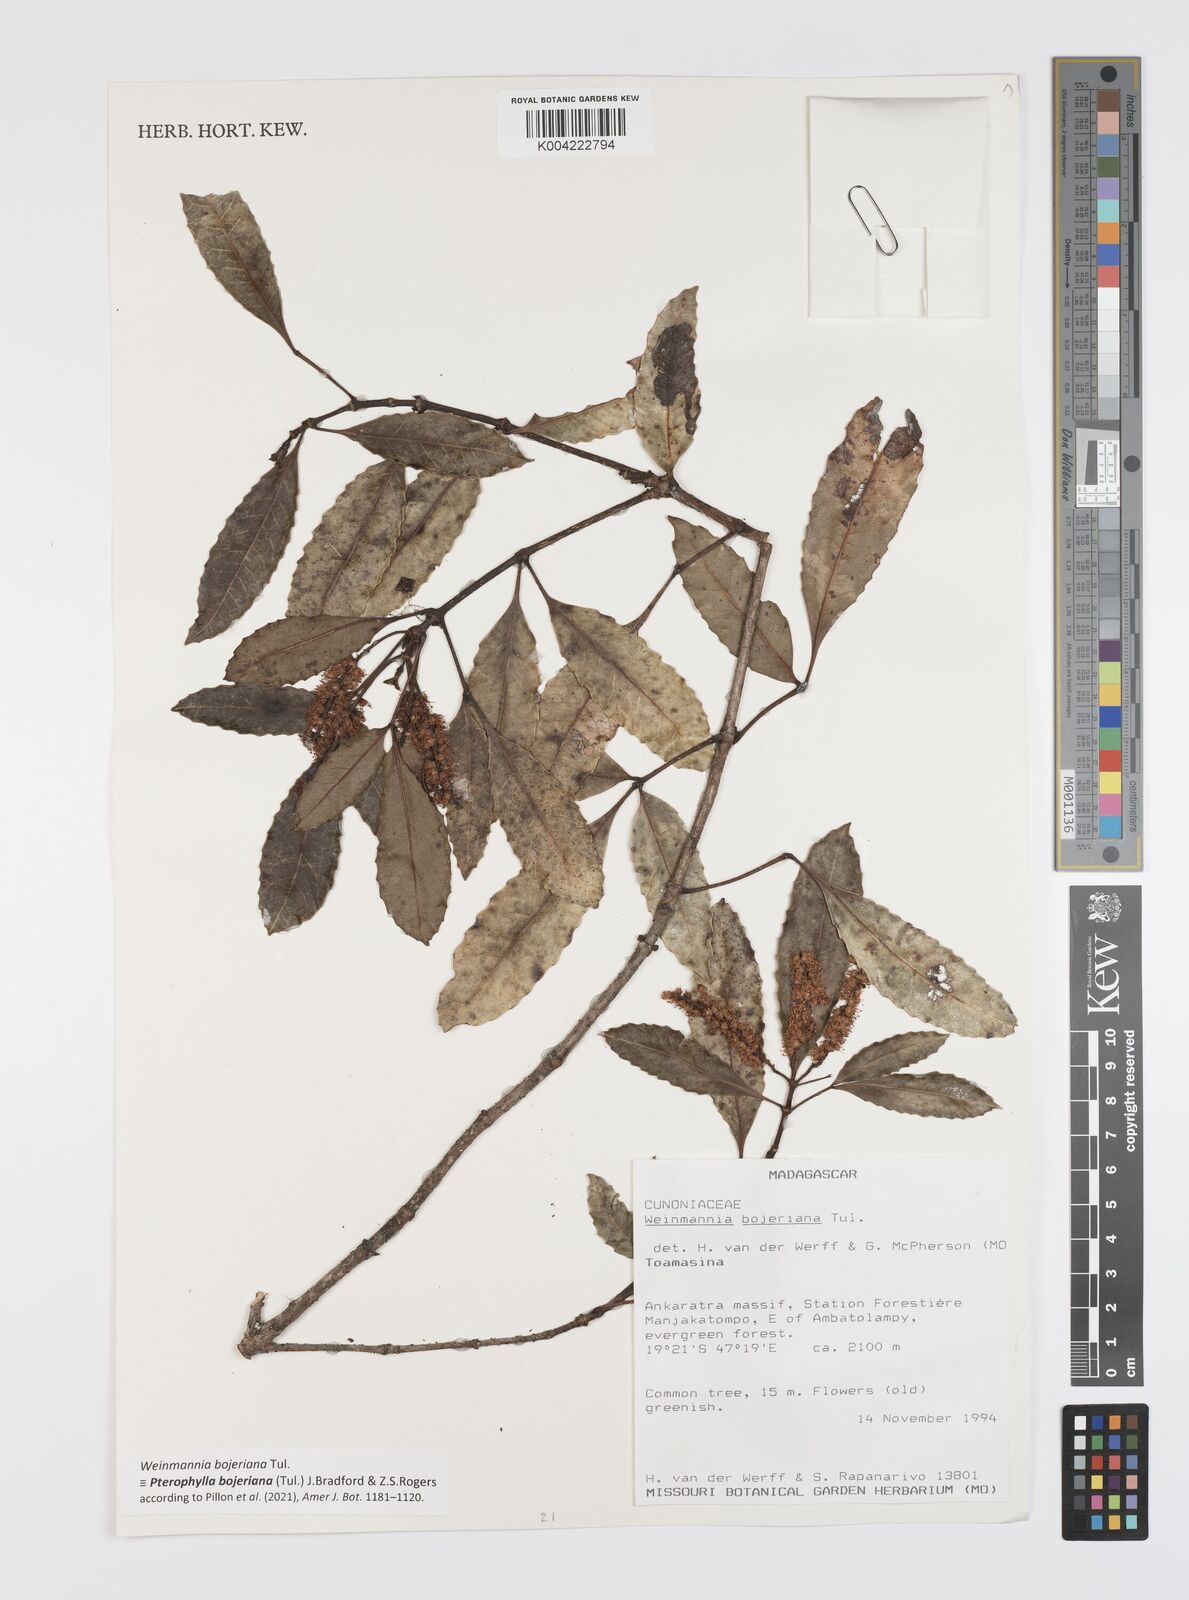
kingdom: Plantae
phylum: Tracheophyta
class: Magnoliopsida
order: Oxalidales
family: Cunoniaceae
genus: Pterophylla
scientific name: Pterophylla
